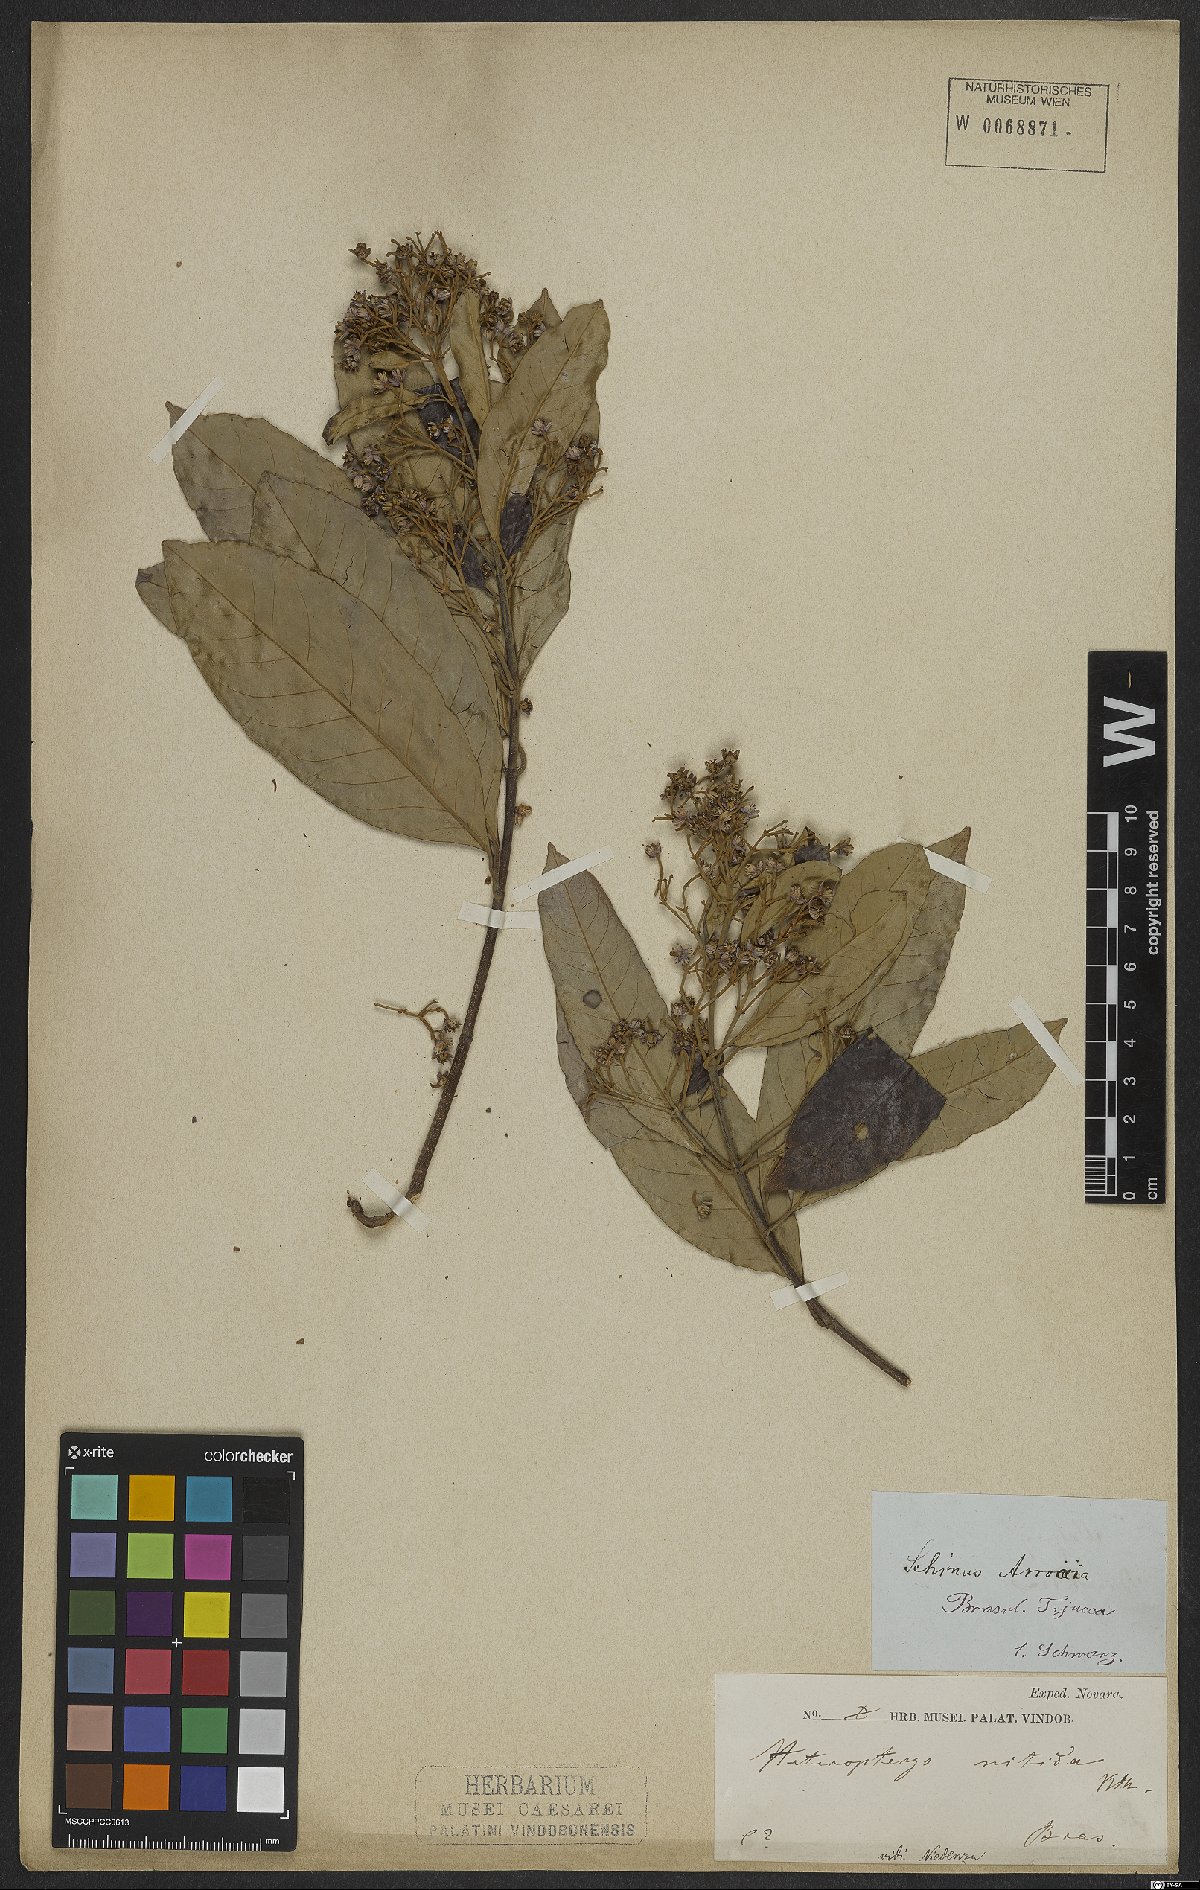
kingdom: Plantae
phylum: Tracheophyta
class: Magnoliopsida
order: Malpighiales
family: Malpighiaceae
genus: Heteropterys
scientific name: Heteropterys nitida
